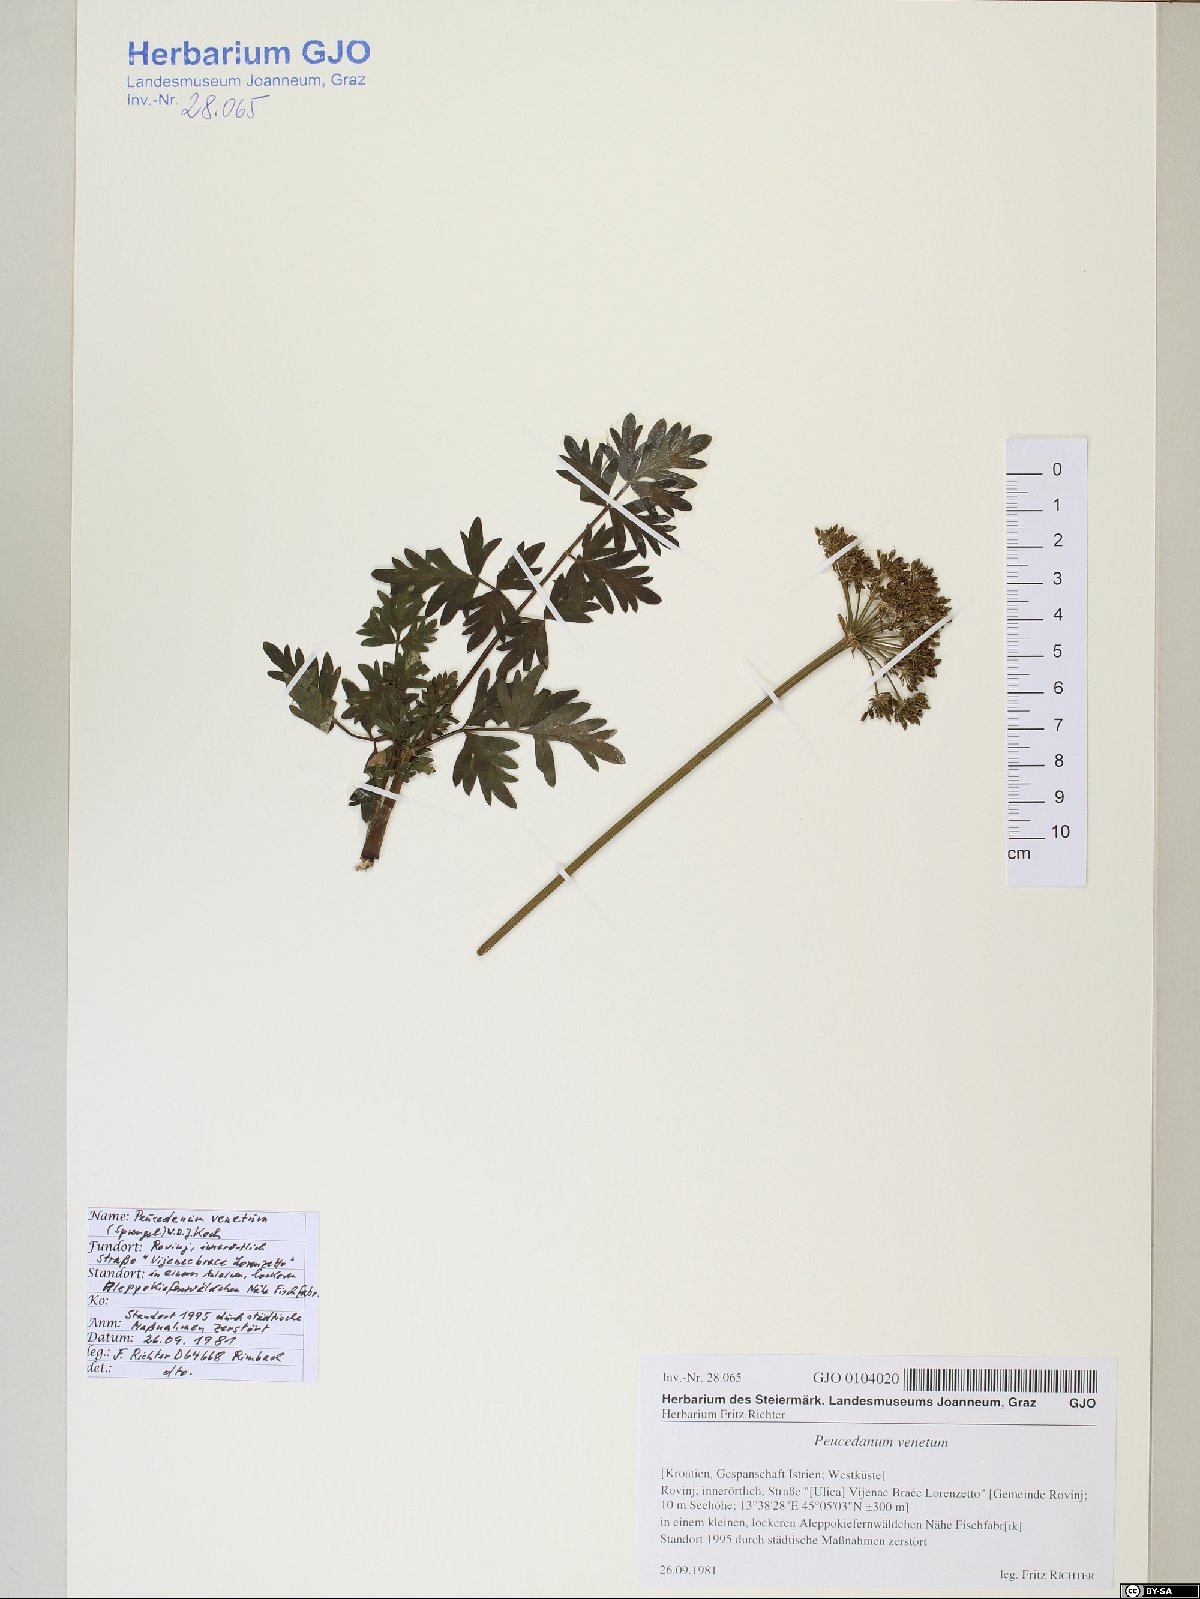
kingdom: Plantae
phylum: Tracheophyta
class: Magnoliopsida
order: Apiales
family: Apiaceae
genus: Xanthoselinum
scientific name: Xanthoselinum alsaticum
